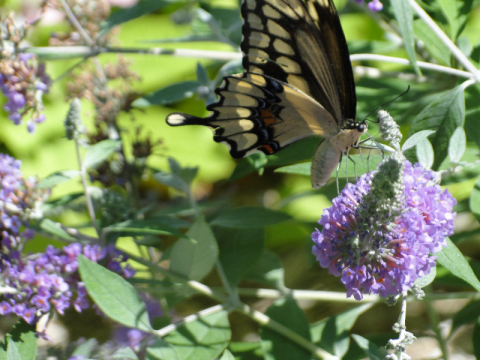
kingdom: Animalia
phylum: Arthropoda
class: Insecta
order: Lepidoptera
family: Papilionidae
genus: Papilio
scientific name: Papilio cresphontes
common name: Eastern Giant Swallowtail
